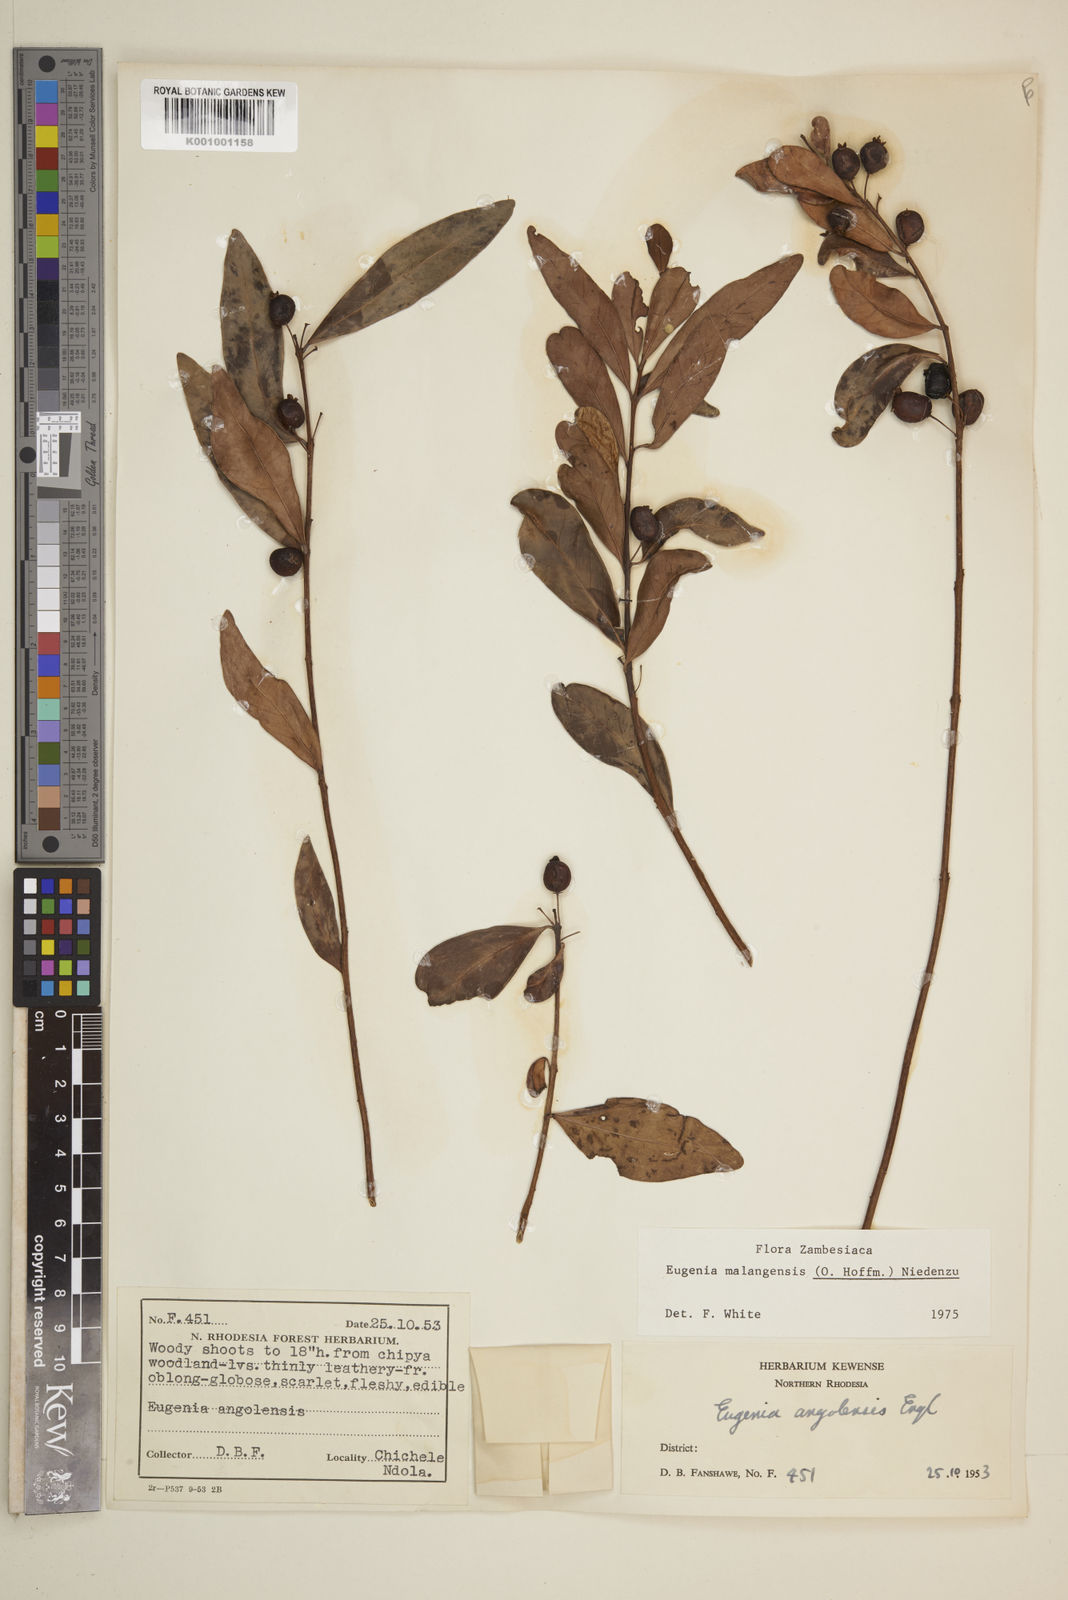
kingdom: Plantae
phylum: Tracheophyta
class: Magnoliopsida
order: Myrtales
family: Myrtaceae
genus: Eugenia
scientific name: Eugenia malangensis
